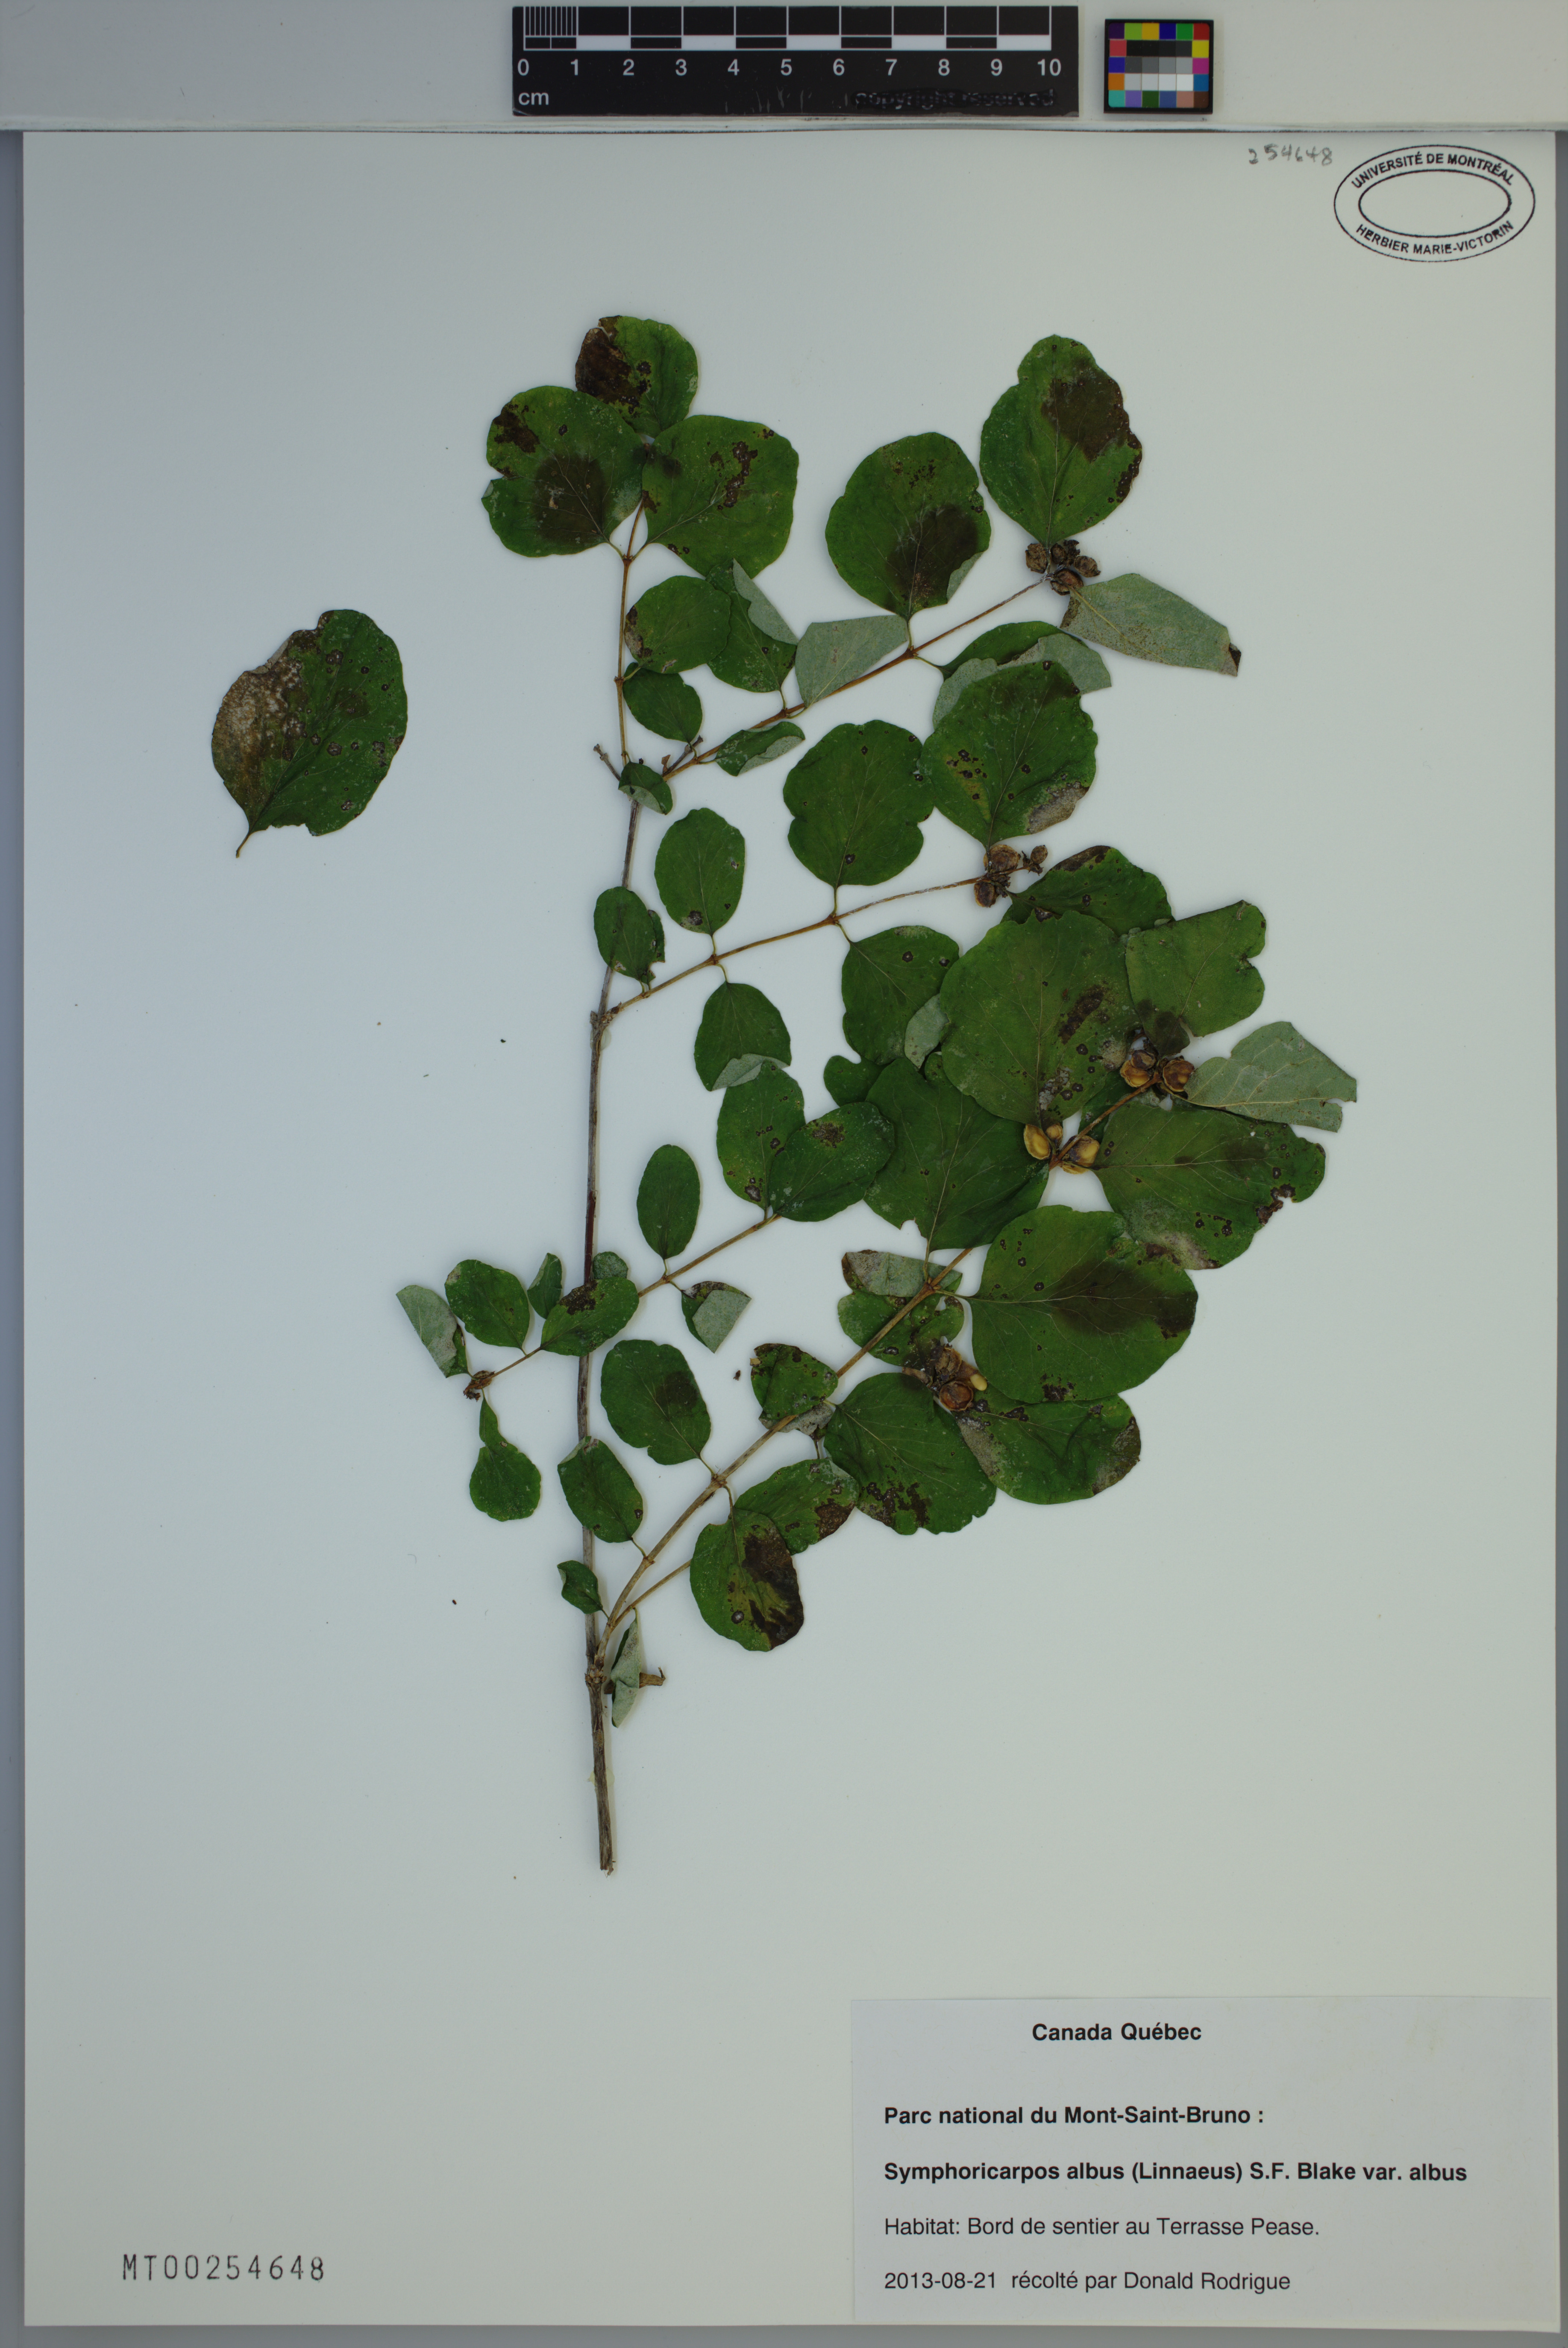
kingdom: Plantae
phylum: Tracheophyta
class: Magnoliopsida
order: Dipsacales
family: Caprifoliaceae
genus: Symphoricarpos
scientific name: Symphoricarpos albus
